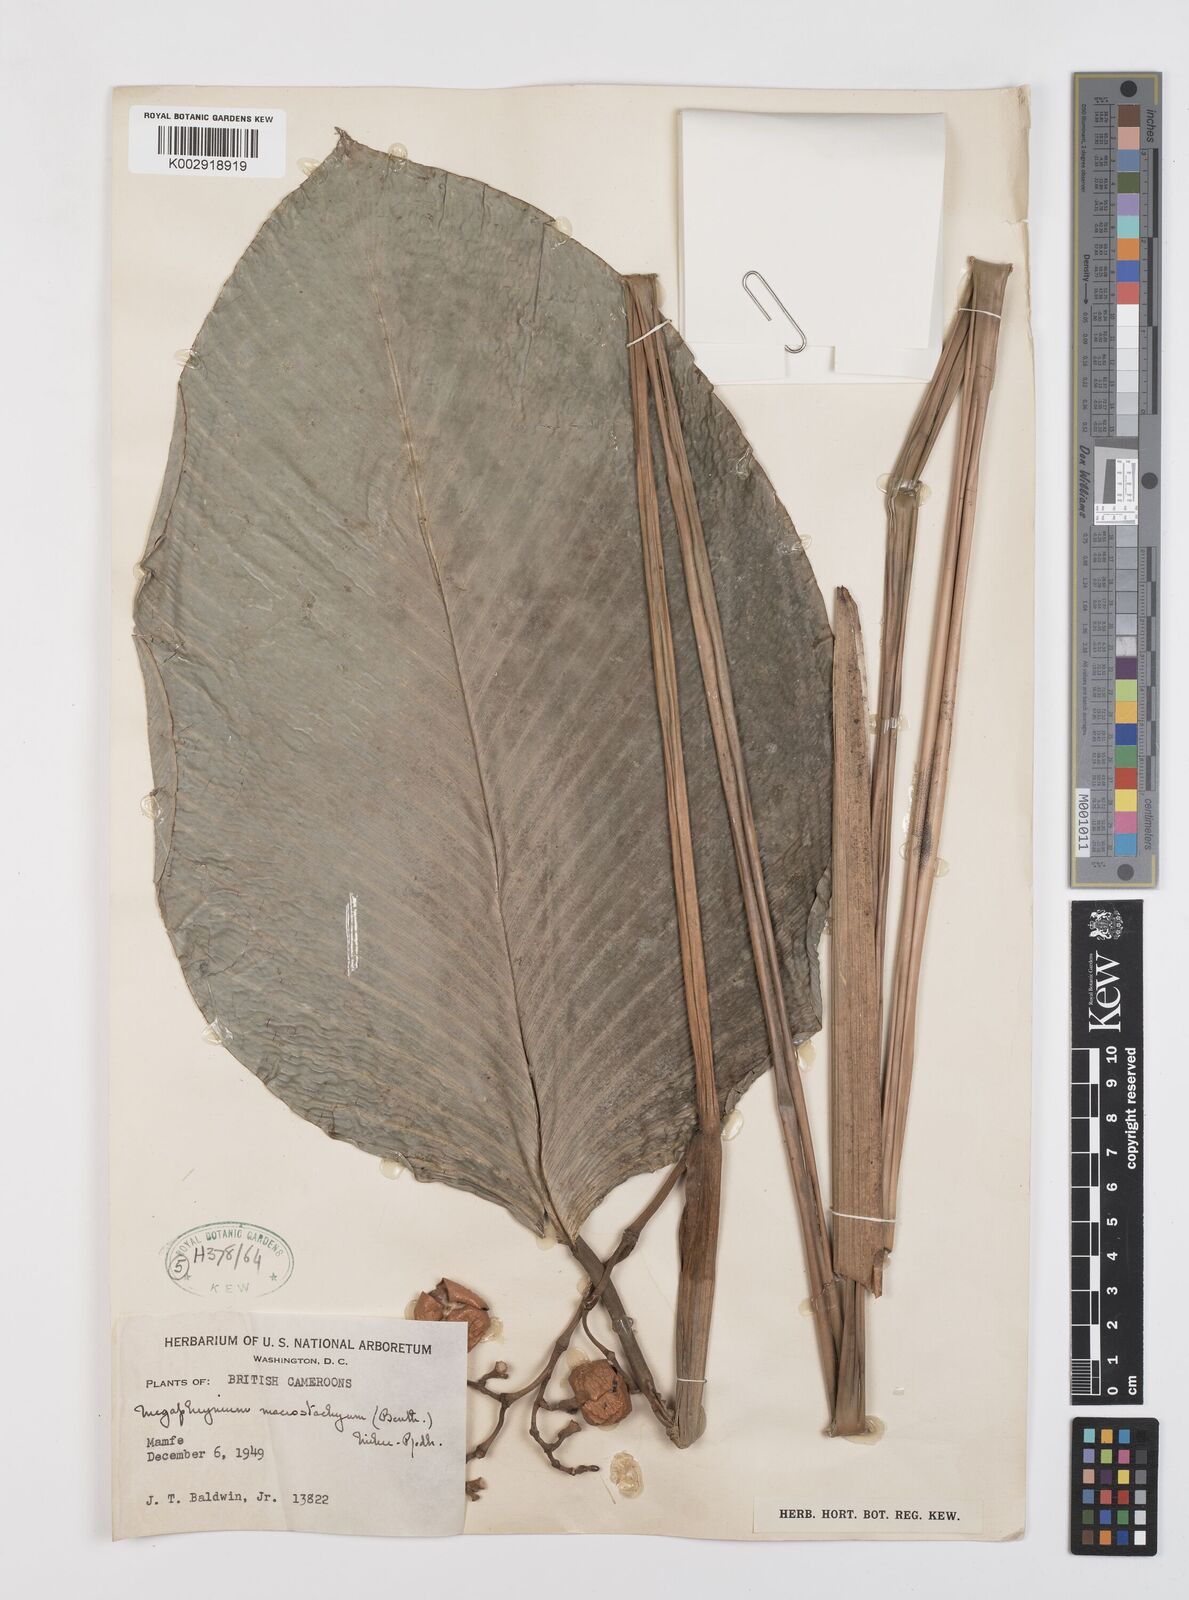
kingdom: Plantae
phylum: Tracheophyta
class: Liliopsida
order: Zingiberales
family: Marantaceae
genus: Megaphrynium
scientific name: Megaphrynium macrostachyum
